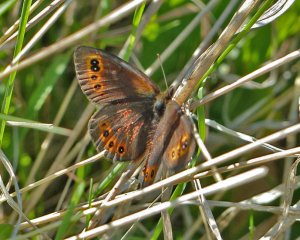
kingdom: Animalia
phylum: Arthropoda
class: Insecta
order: Lepidoptera
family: Nymphalidae
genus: Erebia
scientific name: Erebia epipsodea
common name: Common Alpine
